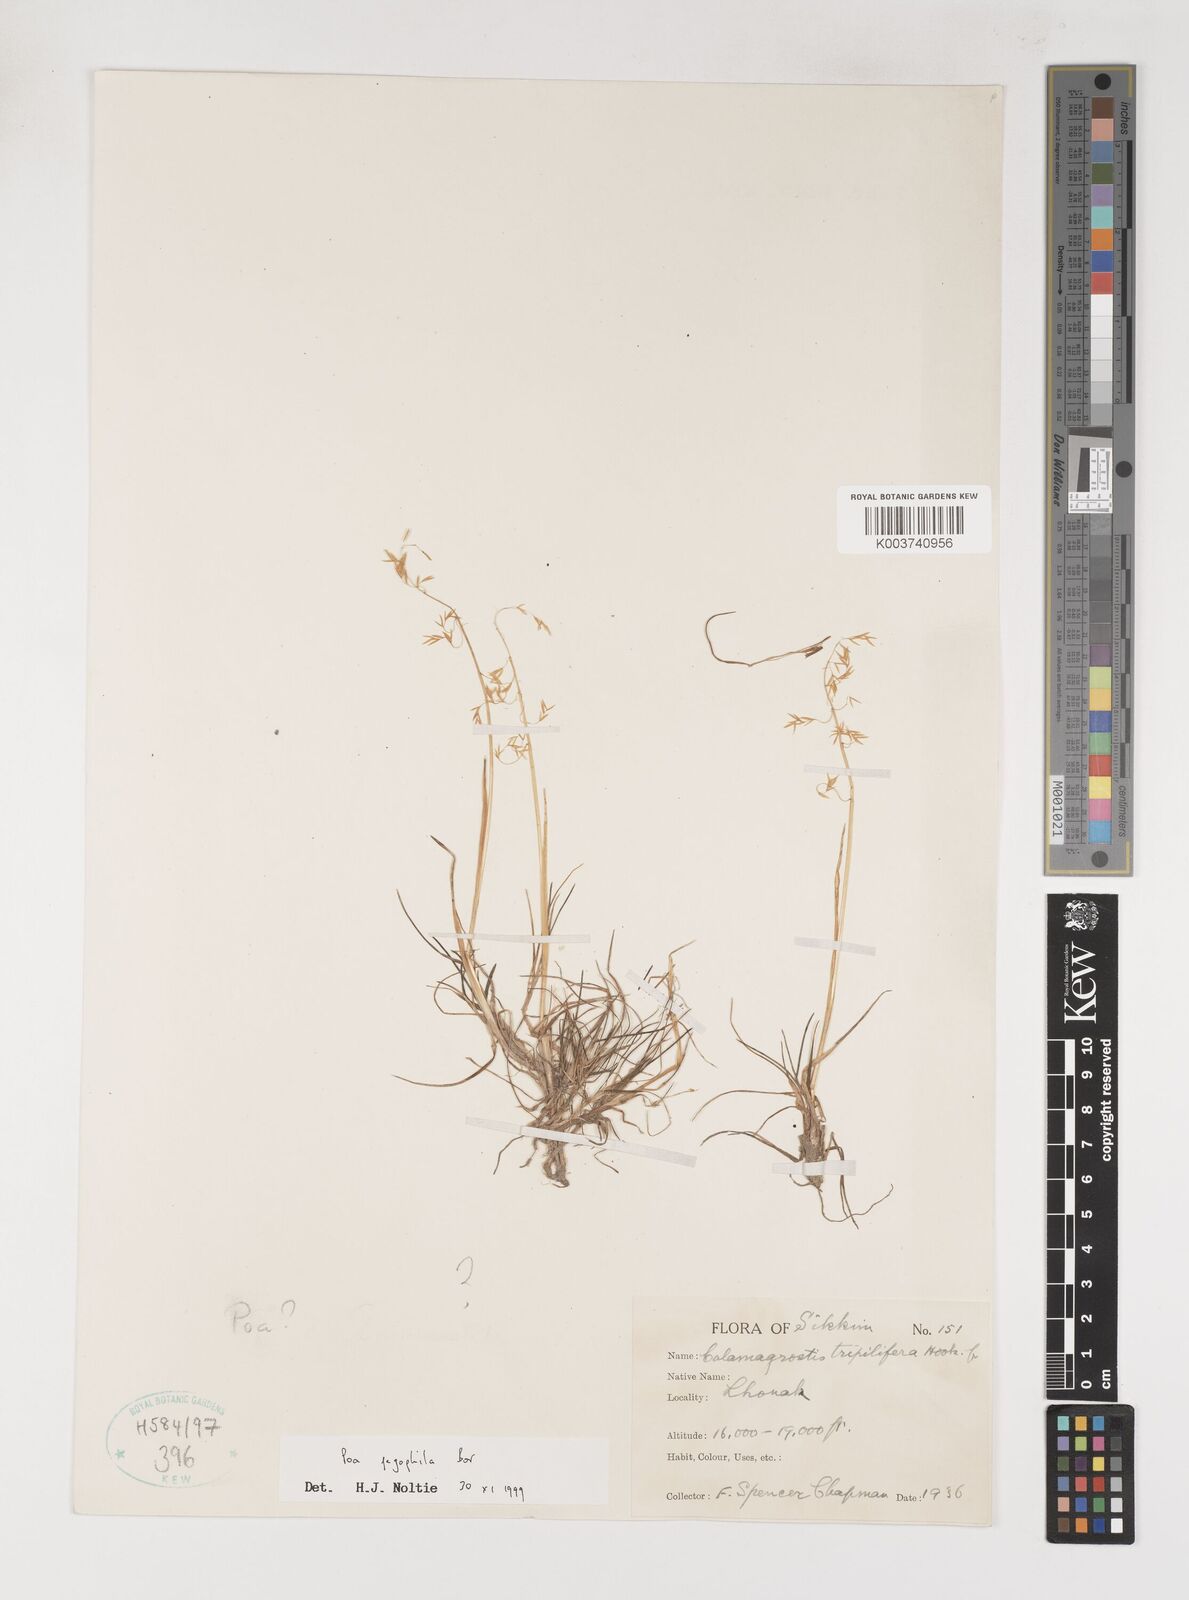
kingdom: Plantae
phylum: Tracheophyta
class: Liliopsida
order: Poales
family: Poaceae
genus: Poa
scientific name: Poa pagophila
